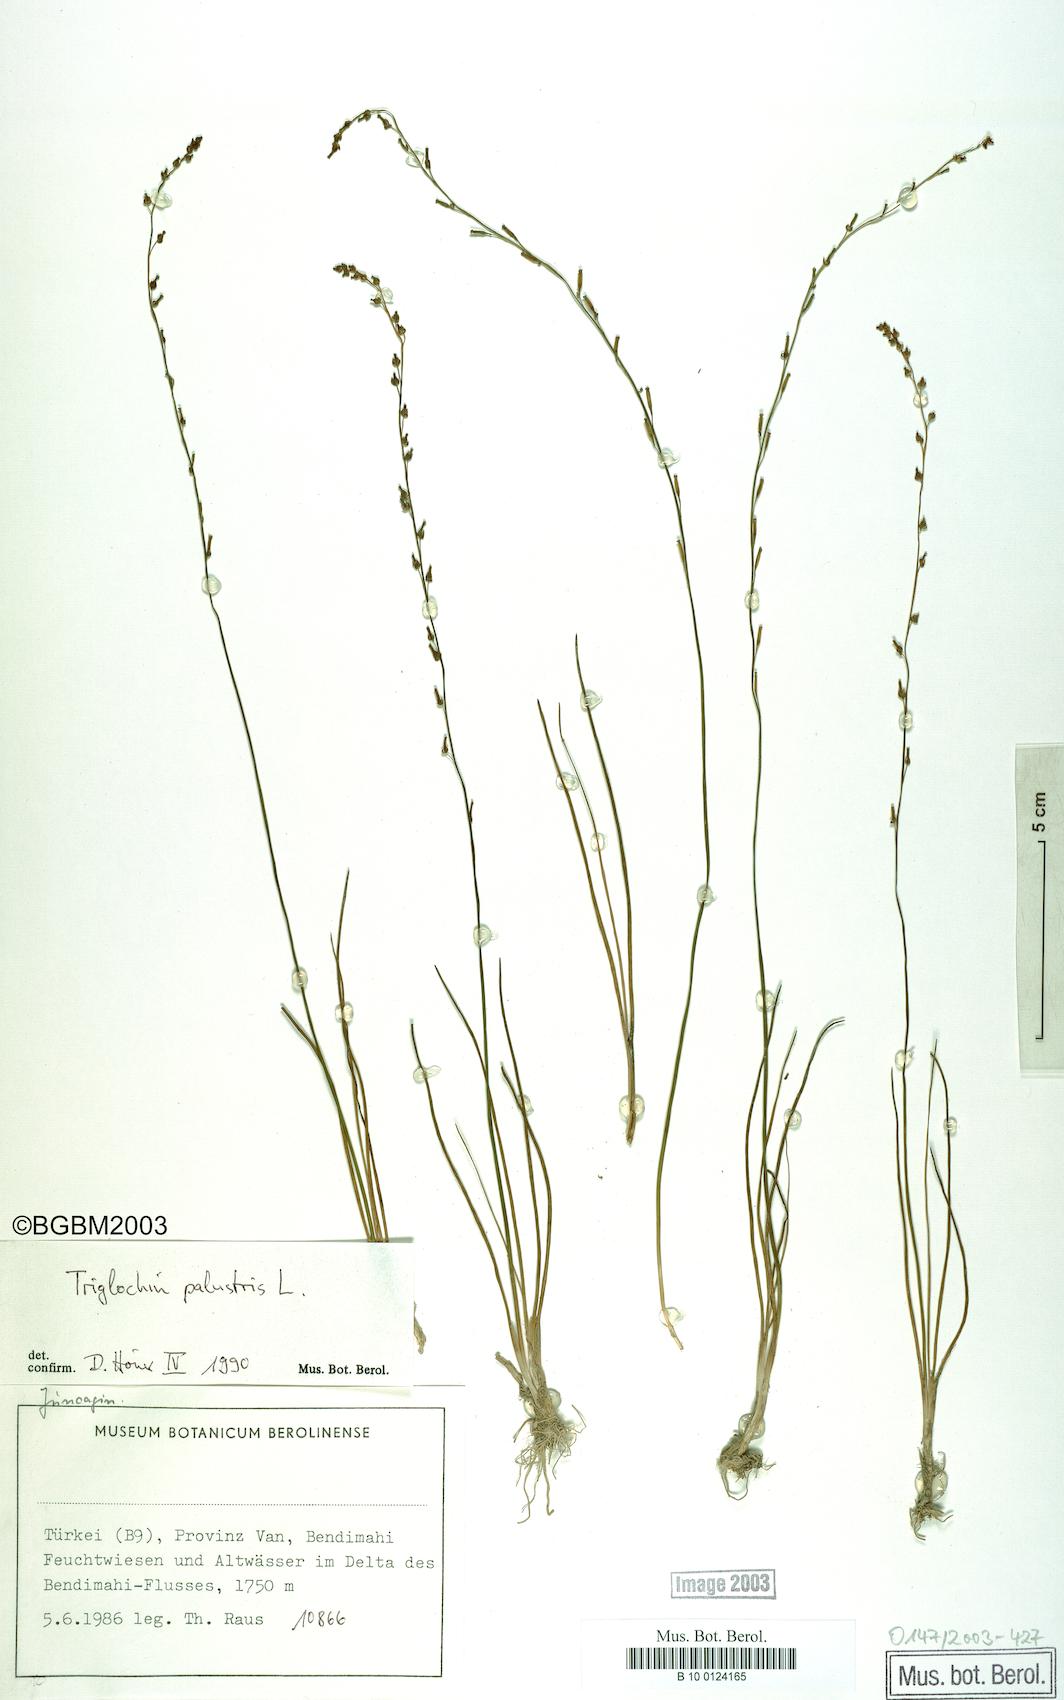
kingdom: Plantae
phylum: Tracheophyta
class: Liliopsida
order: Alismatales
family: Juncaginaceae
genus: Triglochin
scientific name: Triglochin palustris
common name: Marsh arrowgrass
